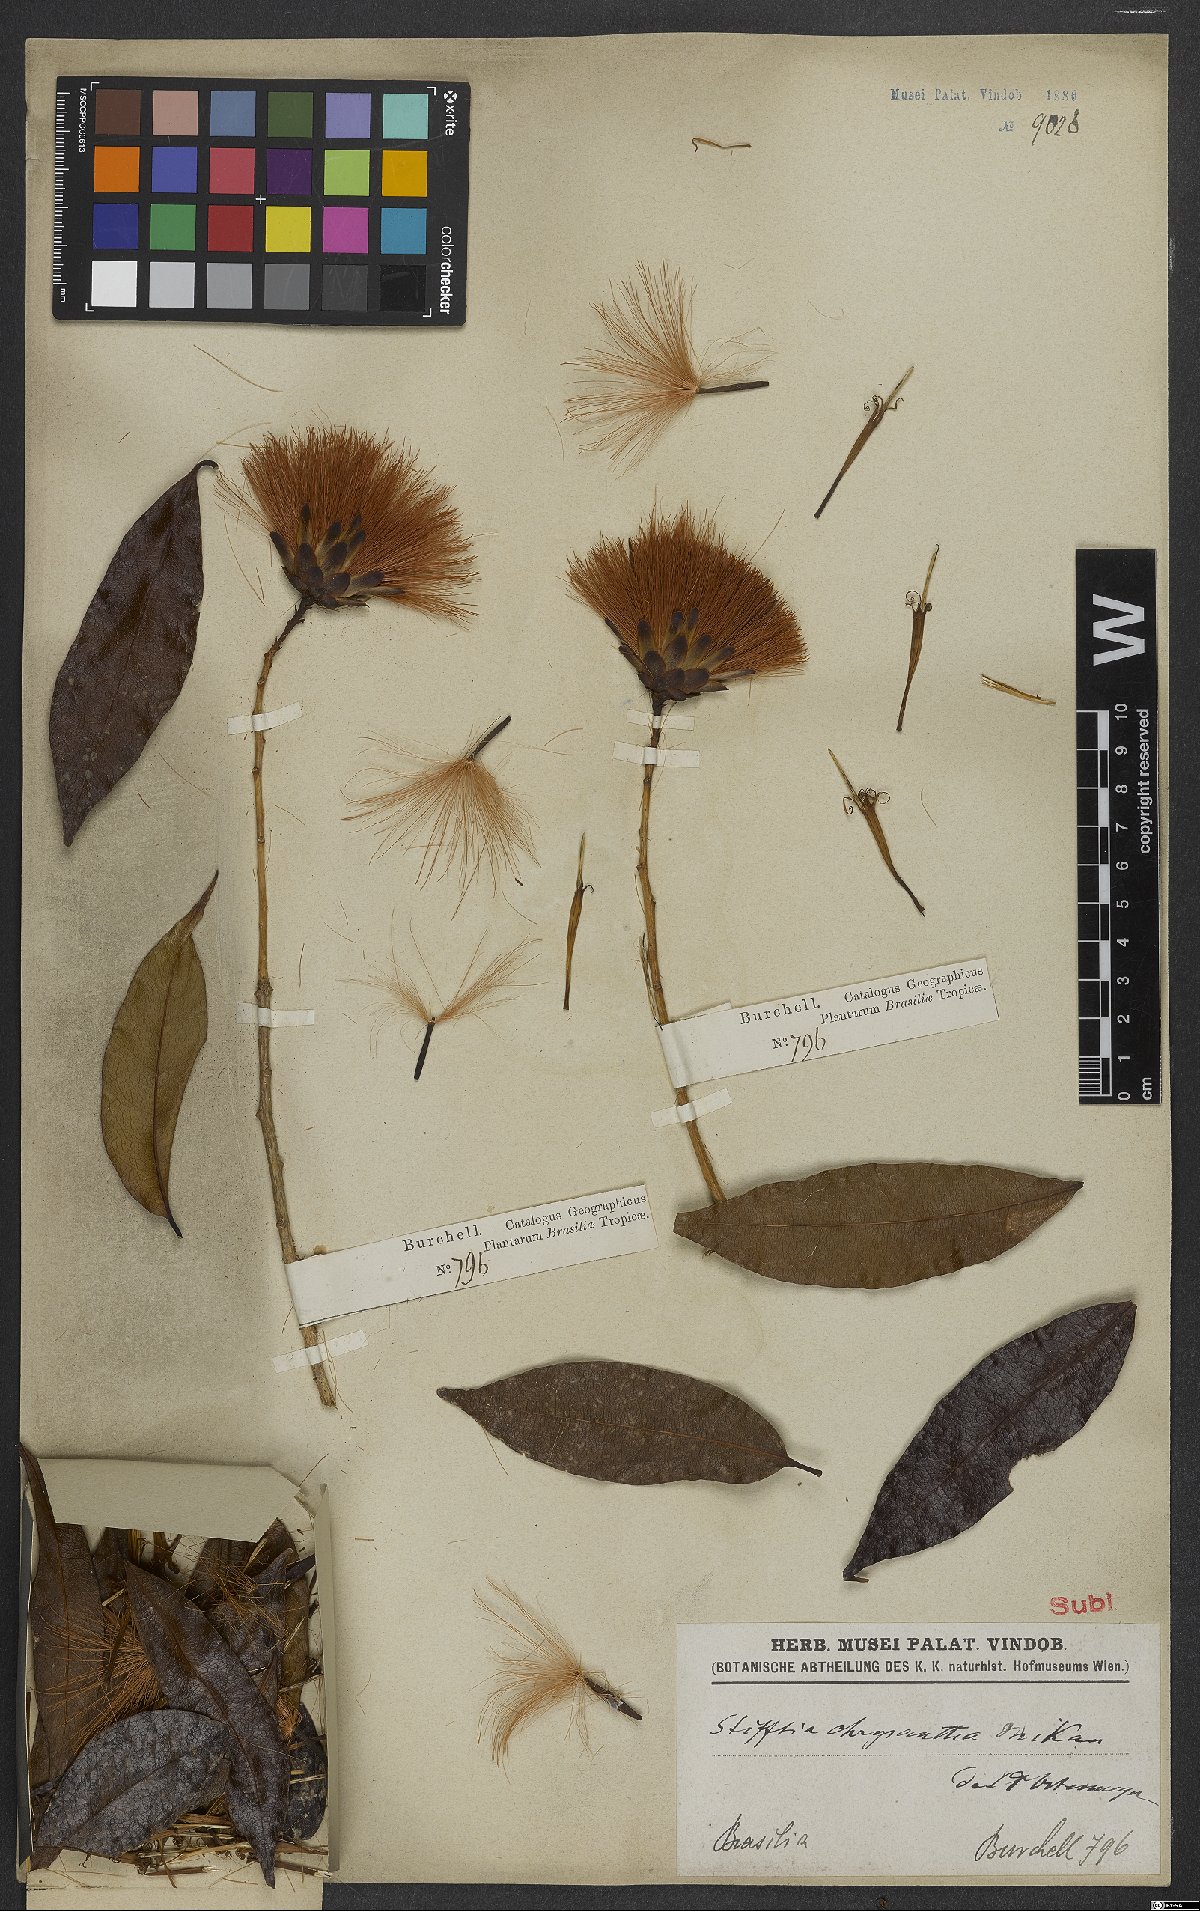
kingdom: Plantae
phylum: Tracheophyta
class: Magnoliopsida
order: Asterales
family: Asteraceae
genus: Stifftia
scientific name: Stifftia chrysantha
